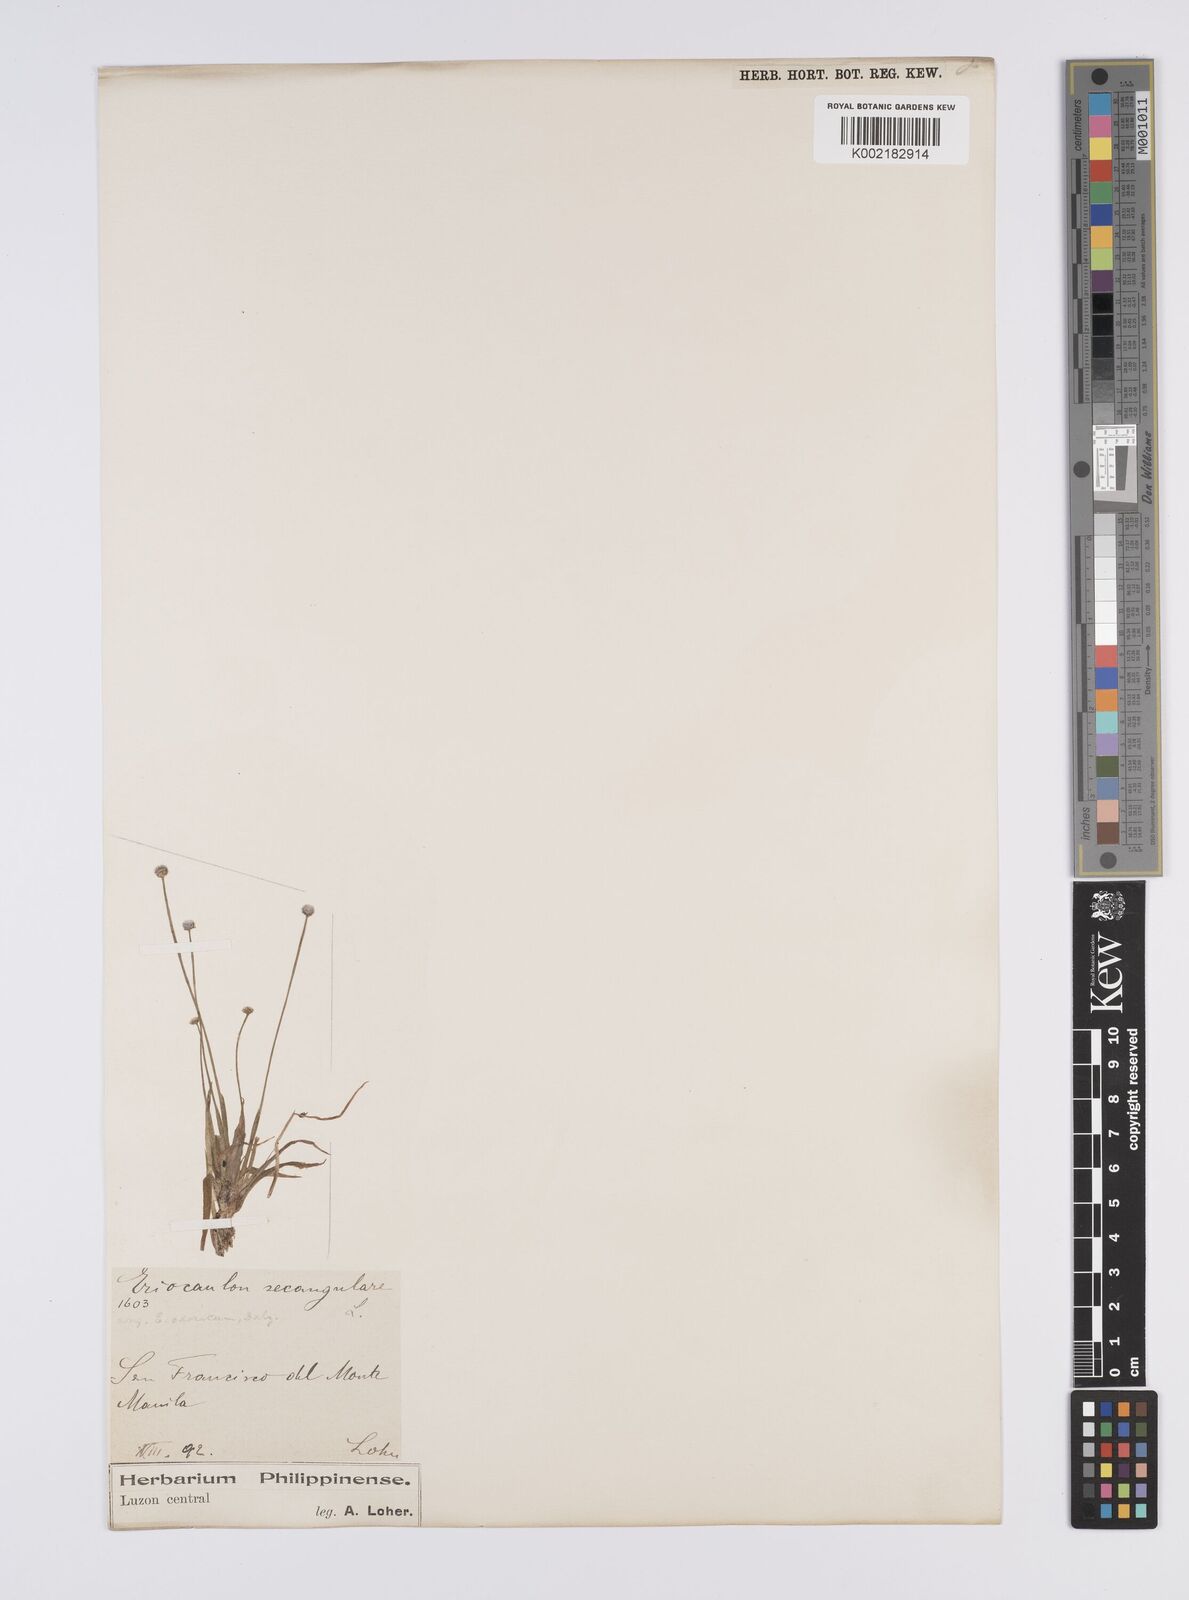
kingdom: Plantae
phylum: Tracheophyta
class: Liliopsida
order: Poales
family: Eriocaulaceae
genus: Eriocaulon
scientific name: Eriocaulon cinereum
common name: Ashy pipewort
